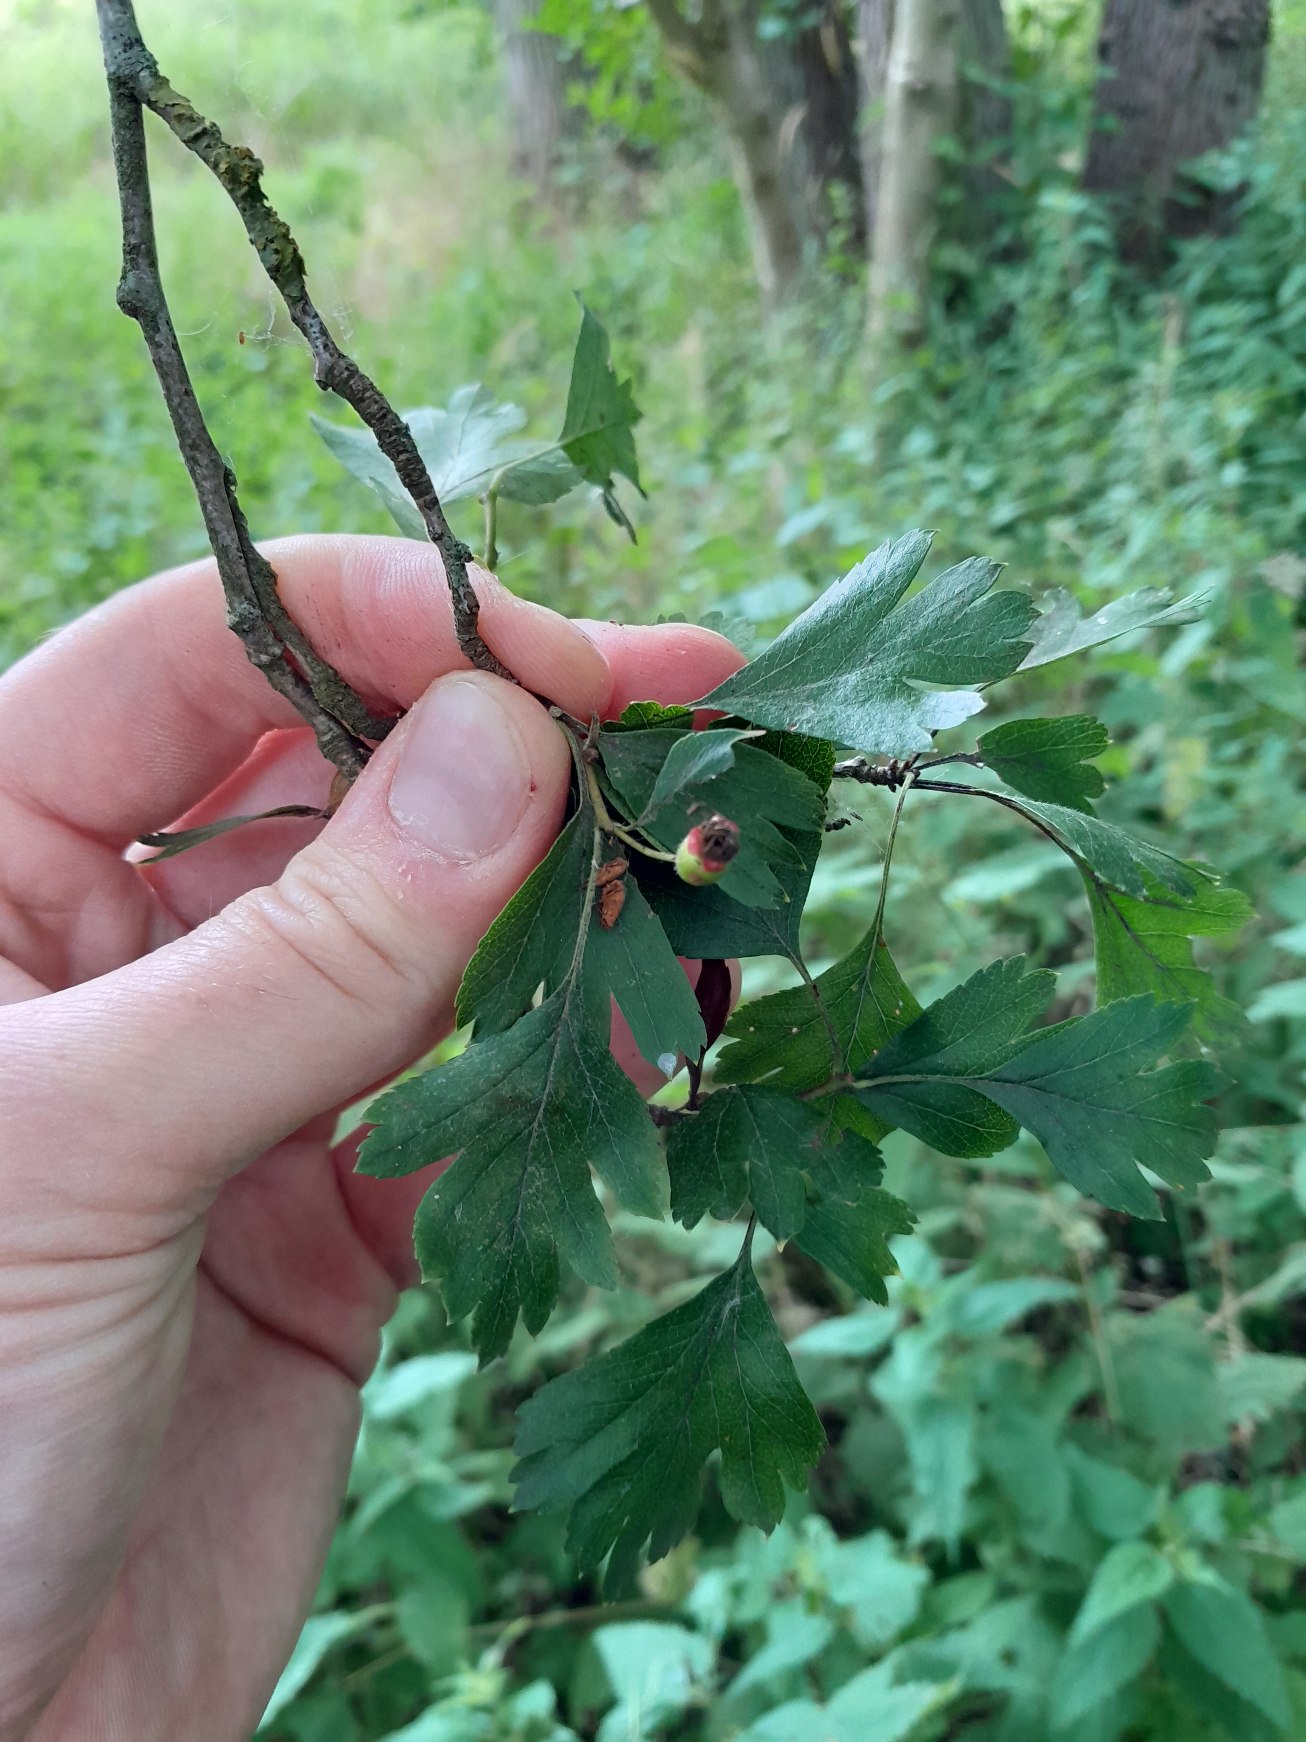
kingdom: Plantae
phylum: Tracheophyta
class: Magnoliopsida
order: Rosales
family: Rosaceae
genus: Crataegus
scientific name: Crataegus subsphaerica
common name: Engriflet hvidtjørn × koral-hvidtjørn
